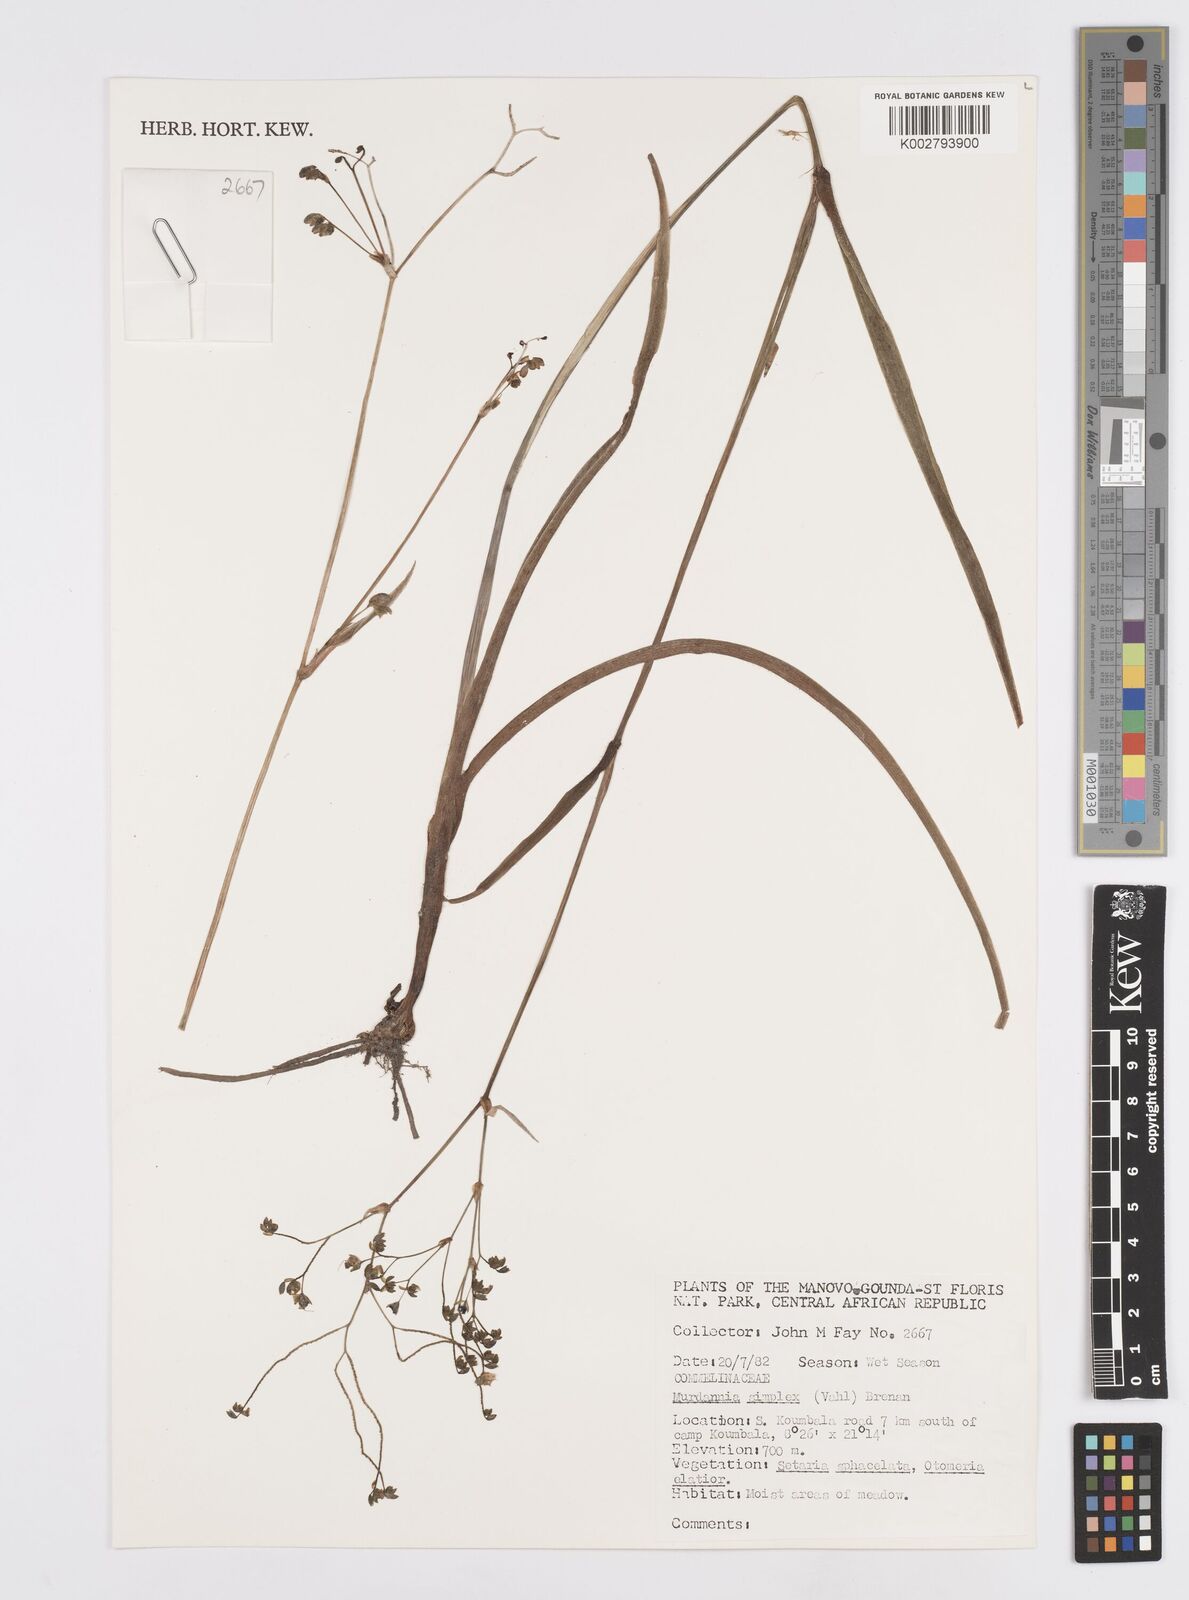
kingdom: Plantae
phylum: Tracheophyta
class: Liliopsida
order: Commelinales
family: Commelinaceae
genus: Murdannia
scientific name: Murdannia simplex
